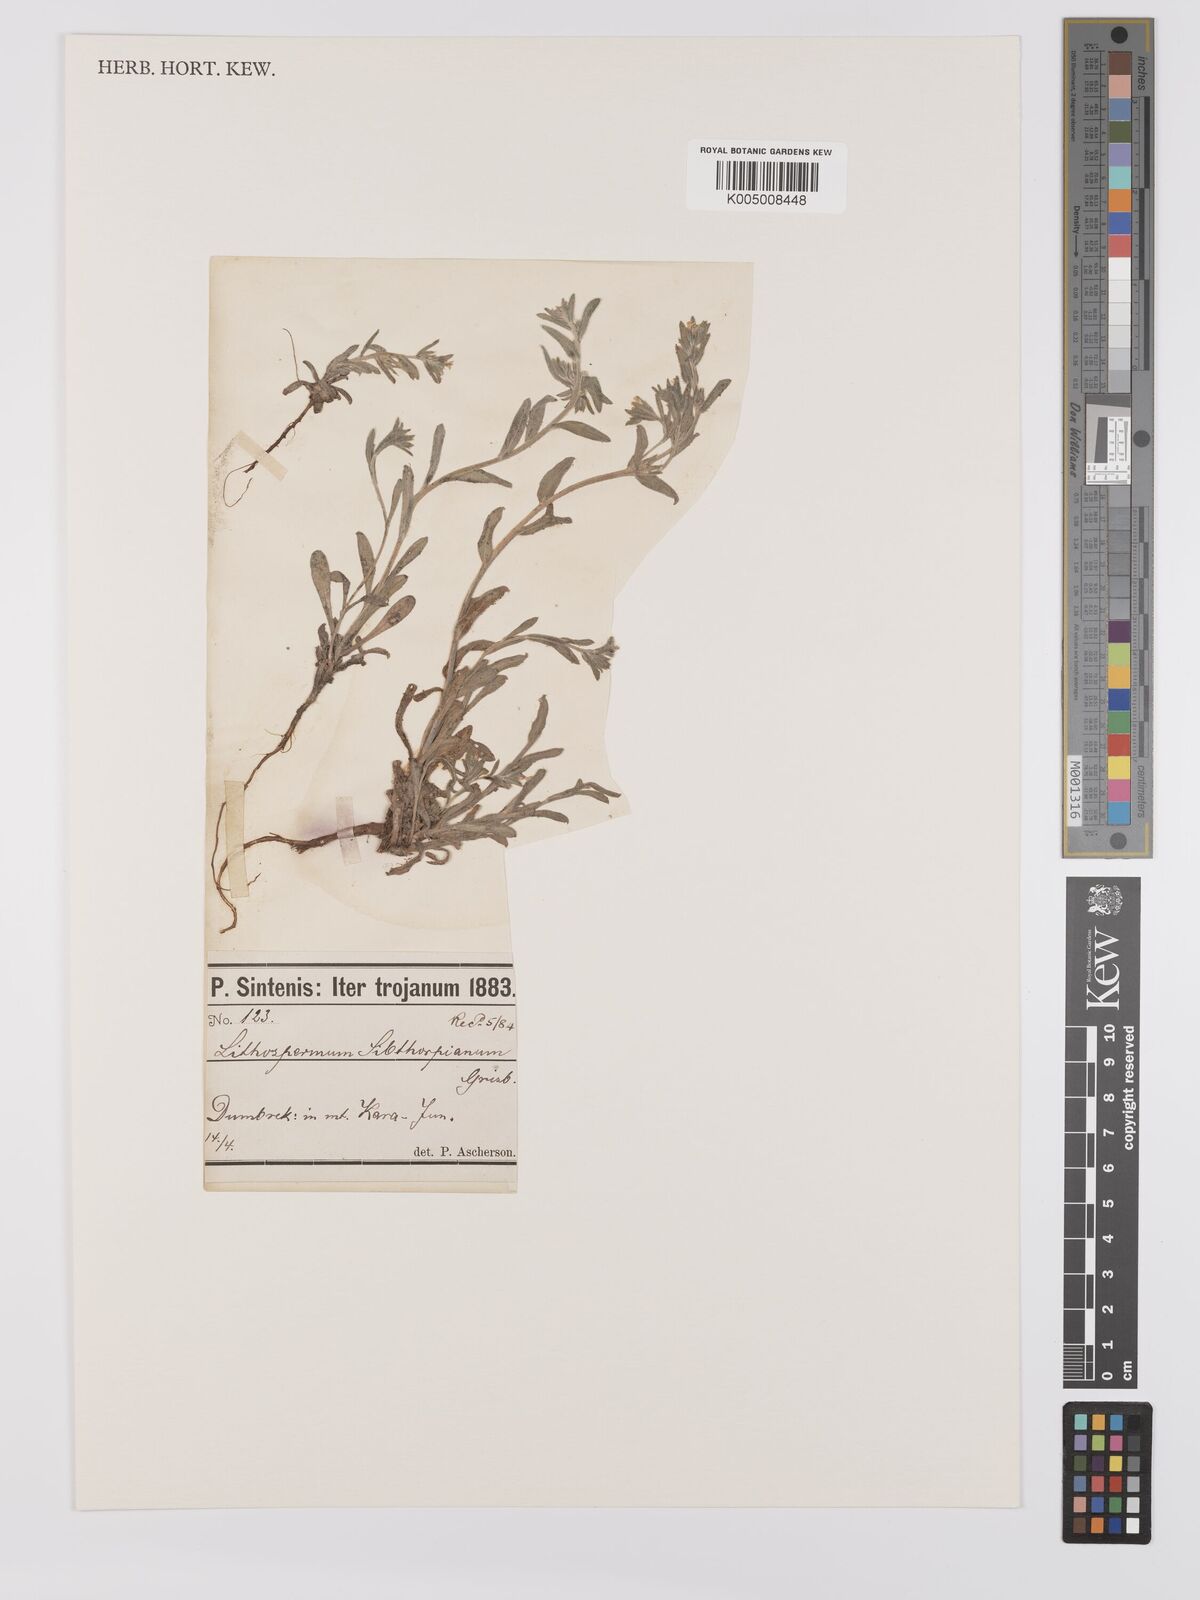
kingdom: Plantae
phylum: Tracheophyta
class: Magnoliopsida
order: Boraginales
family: Boraginaceae
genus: Buglossoides
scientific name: Buglossoides arvensis
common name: Corn gromwell
